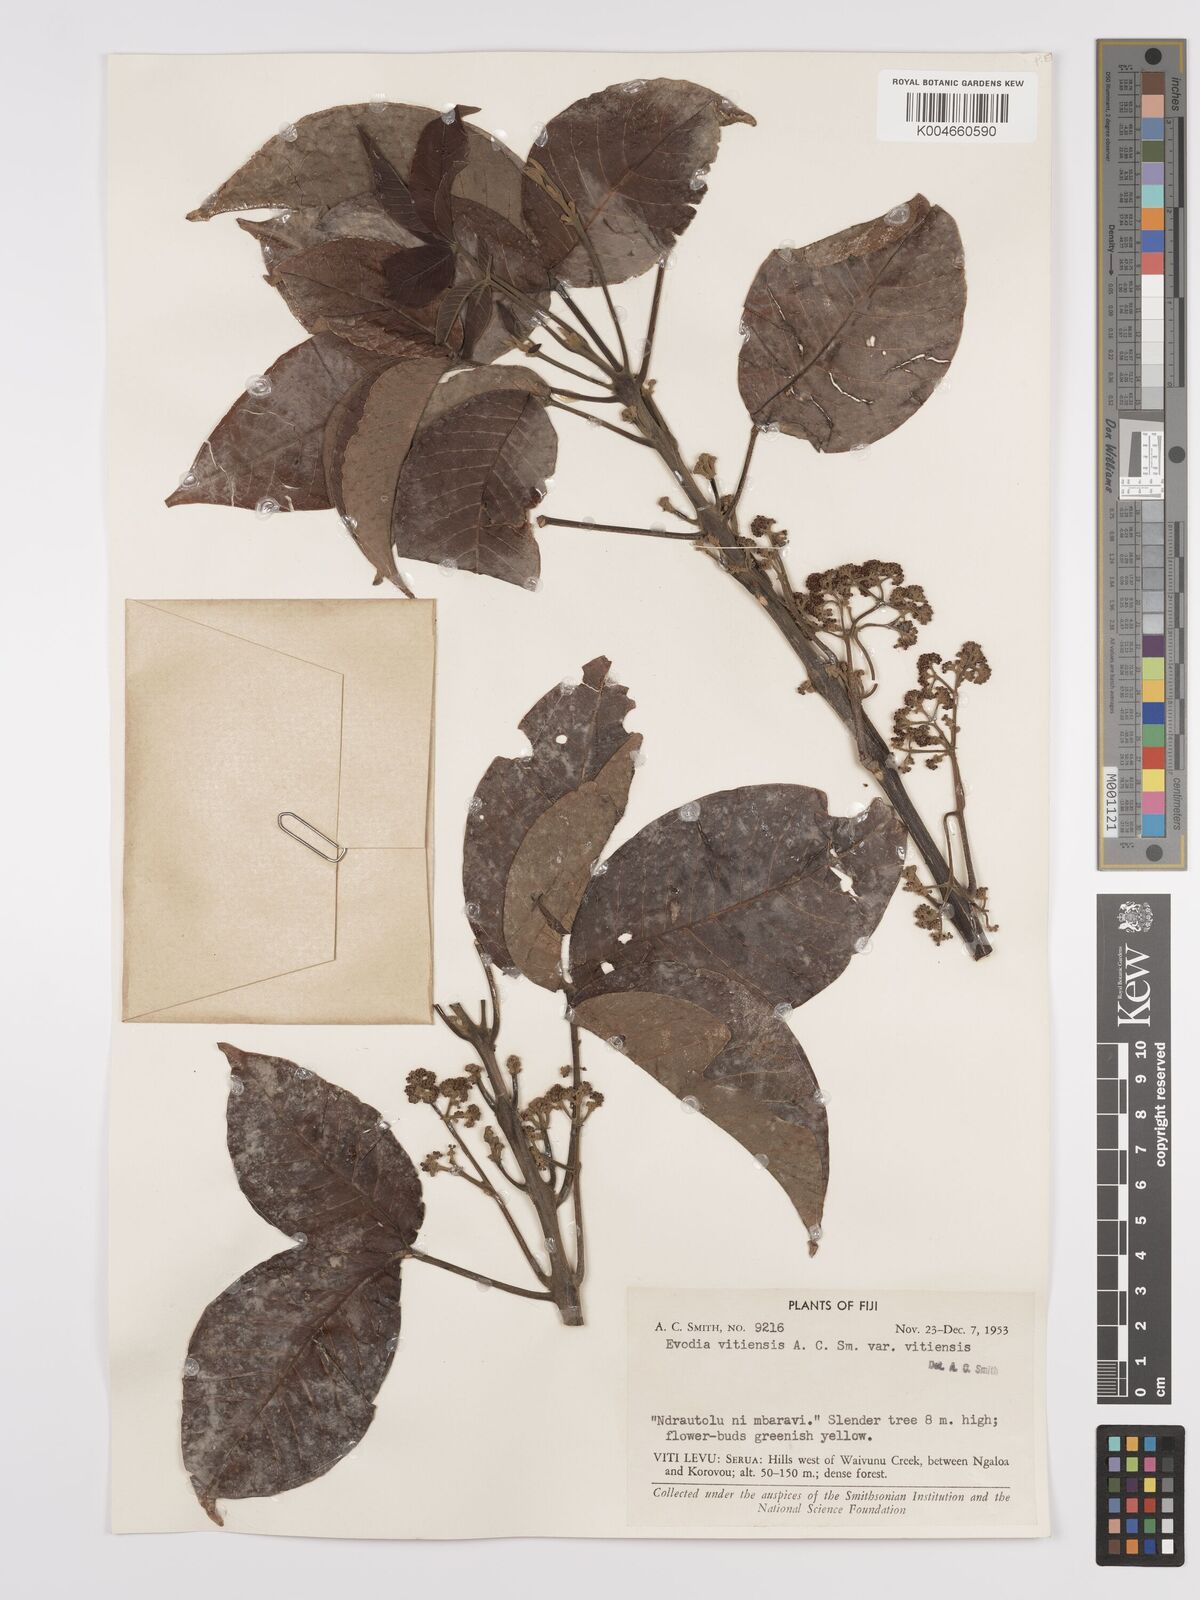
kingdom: Plantae
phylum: Tracheophyta
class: Magnoliopsida
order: Sapindales
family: Rutaceae
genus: Melicope
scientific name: Melicope cucullata
